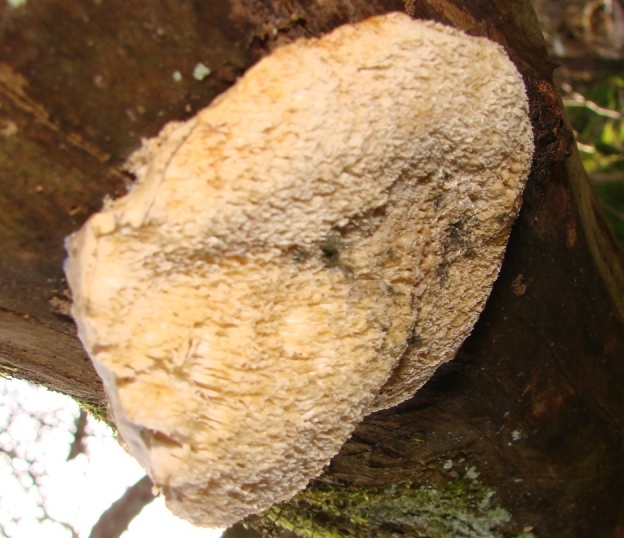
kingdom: Fungi
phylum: Basidiomycota
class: Agaricomycetes
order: Polyporales
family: Meruliaceae
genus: Sarcodontia
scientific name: Sarcodontia setosa
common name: æblepig
